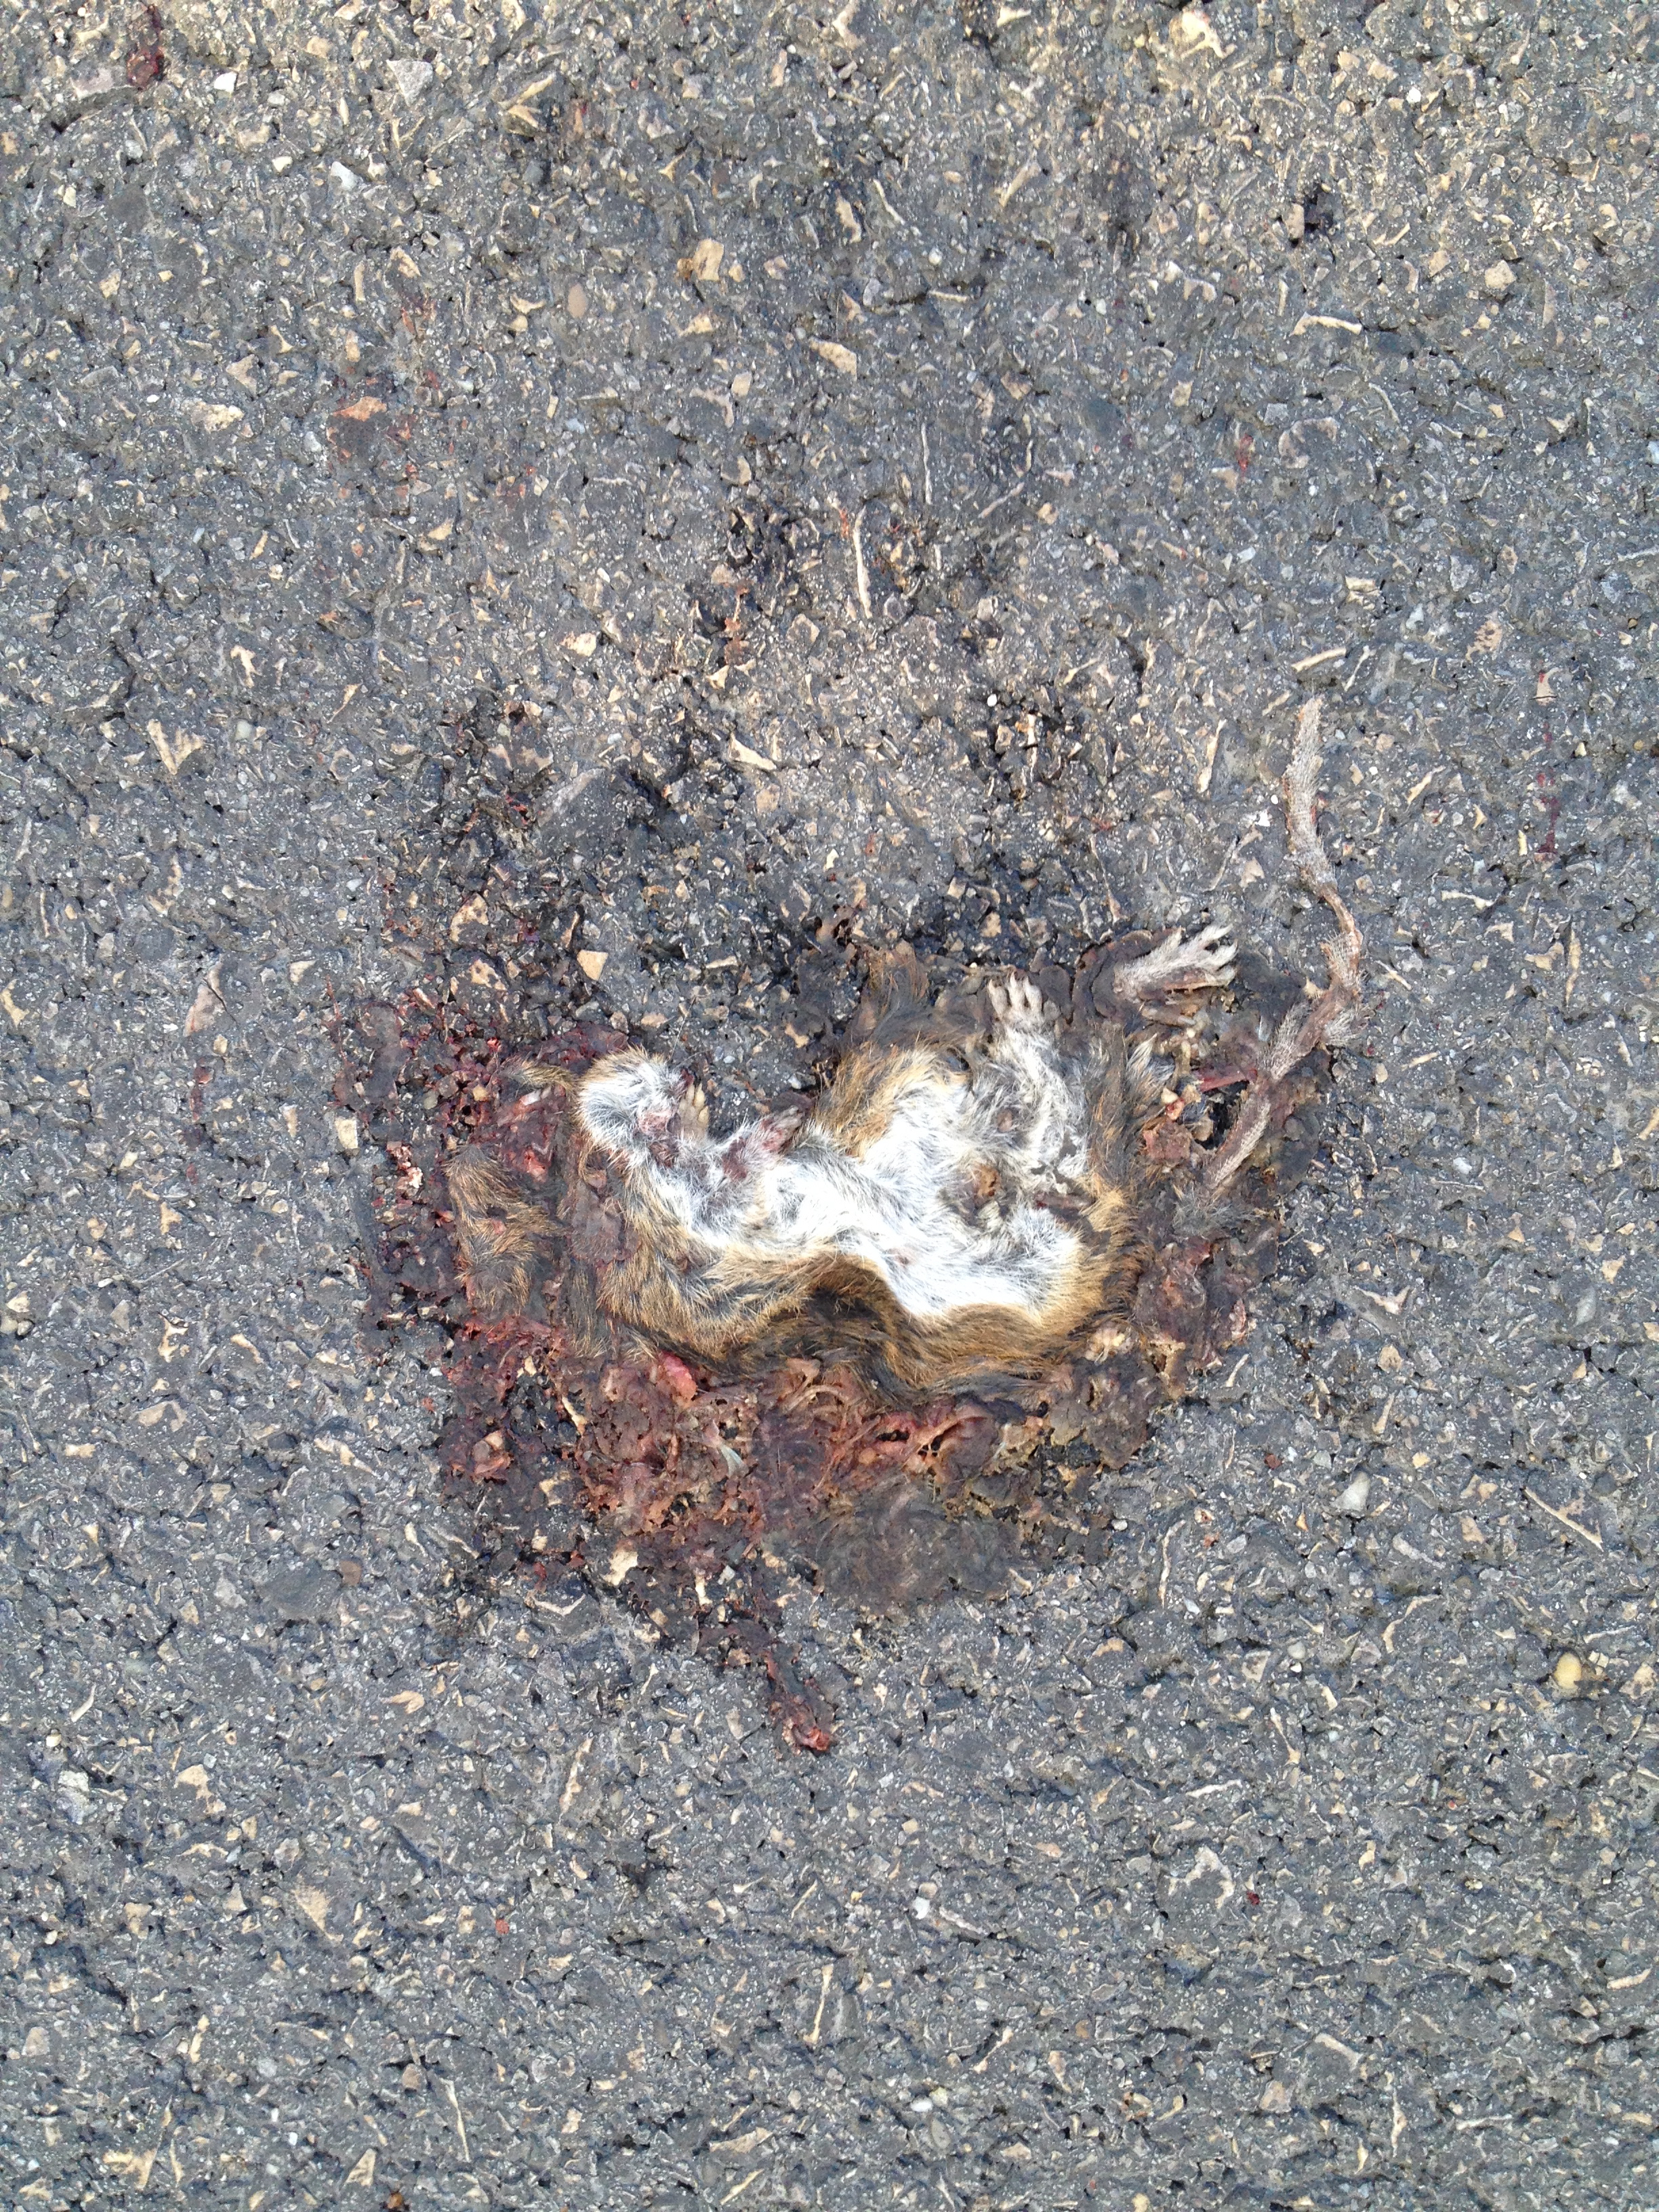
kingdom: Animalia
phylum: Chordata
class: Mammalia
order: Rodentia
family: Muridae
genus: Apodemus
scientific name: Apodemus
